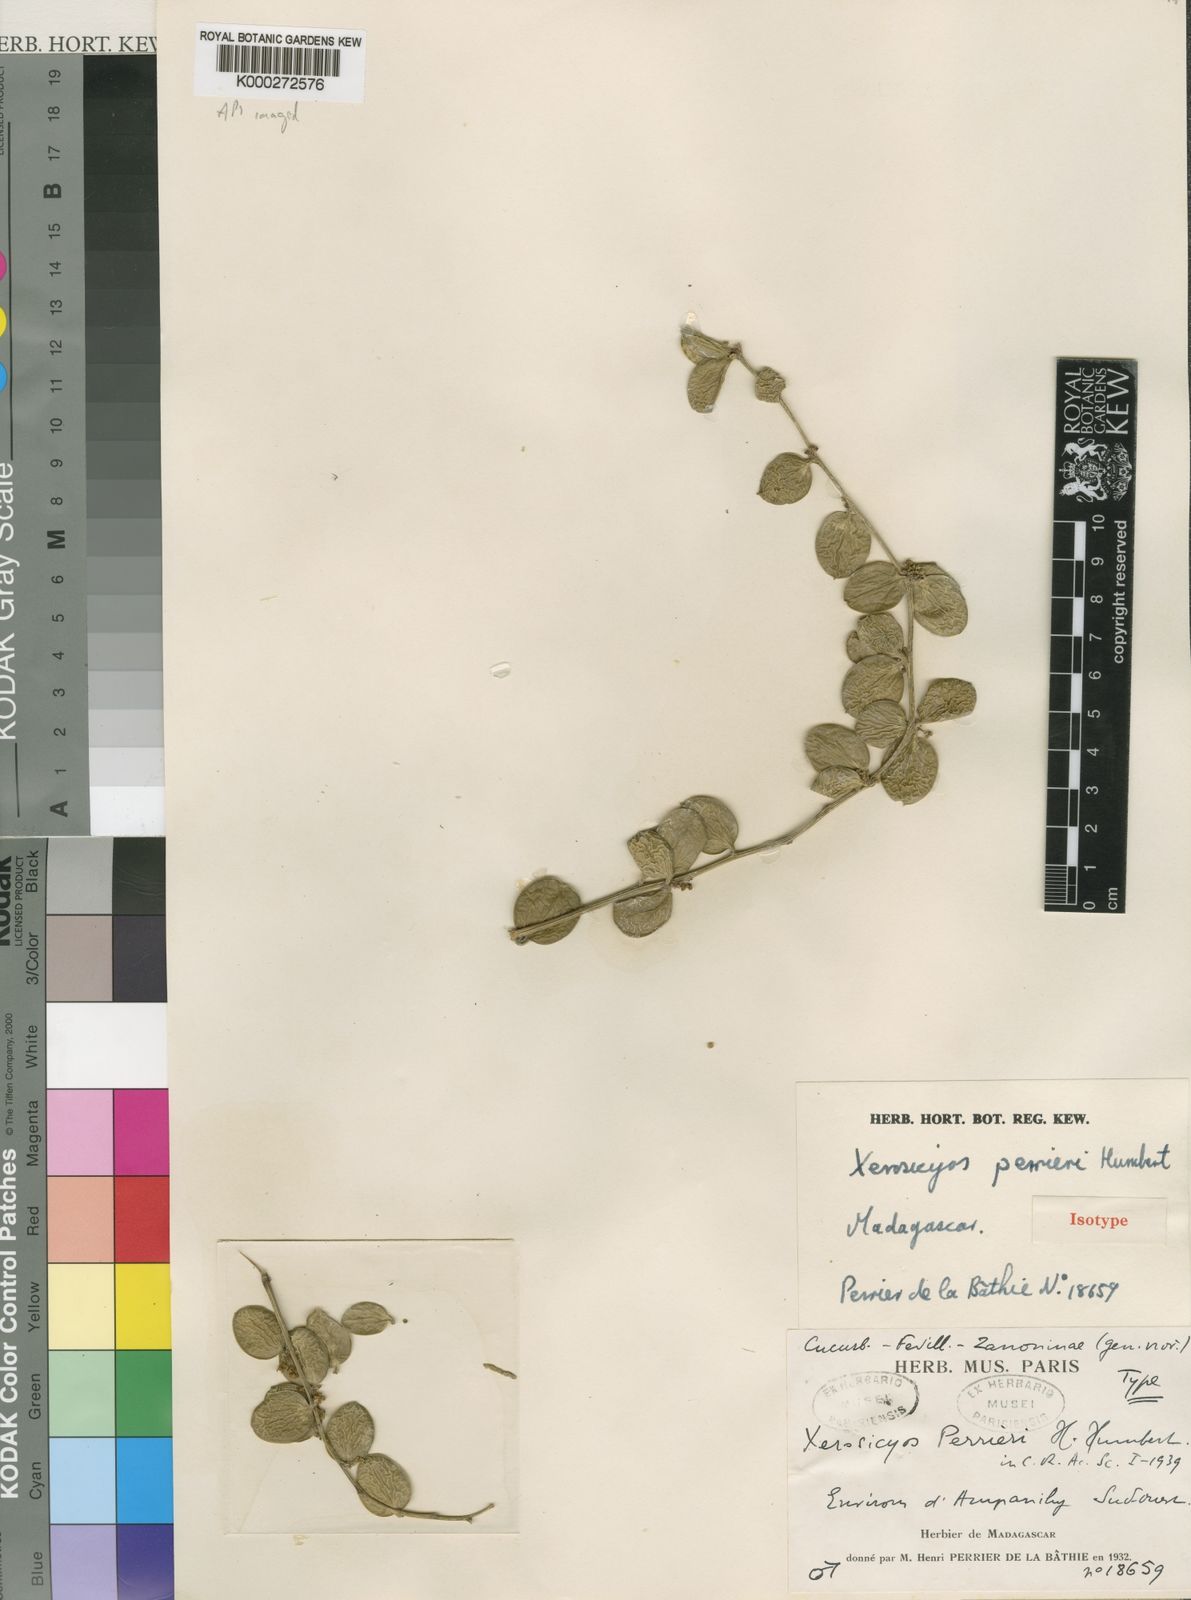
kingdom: Plantae
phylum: Tracheophyta
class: Magnoliopsida
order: Cucurbitales
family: Cucurbitaceae
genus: Xerosicyos
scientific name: Xerosicyos perrieri
